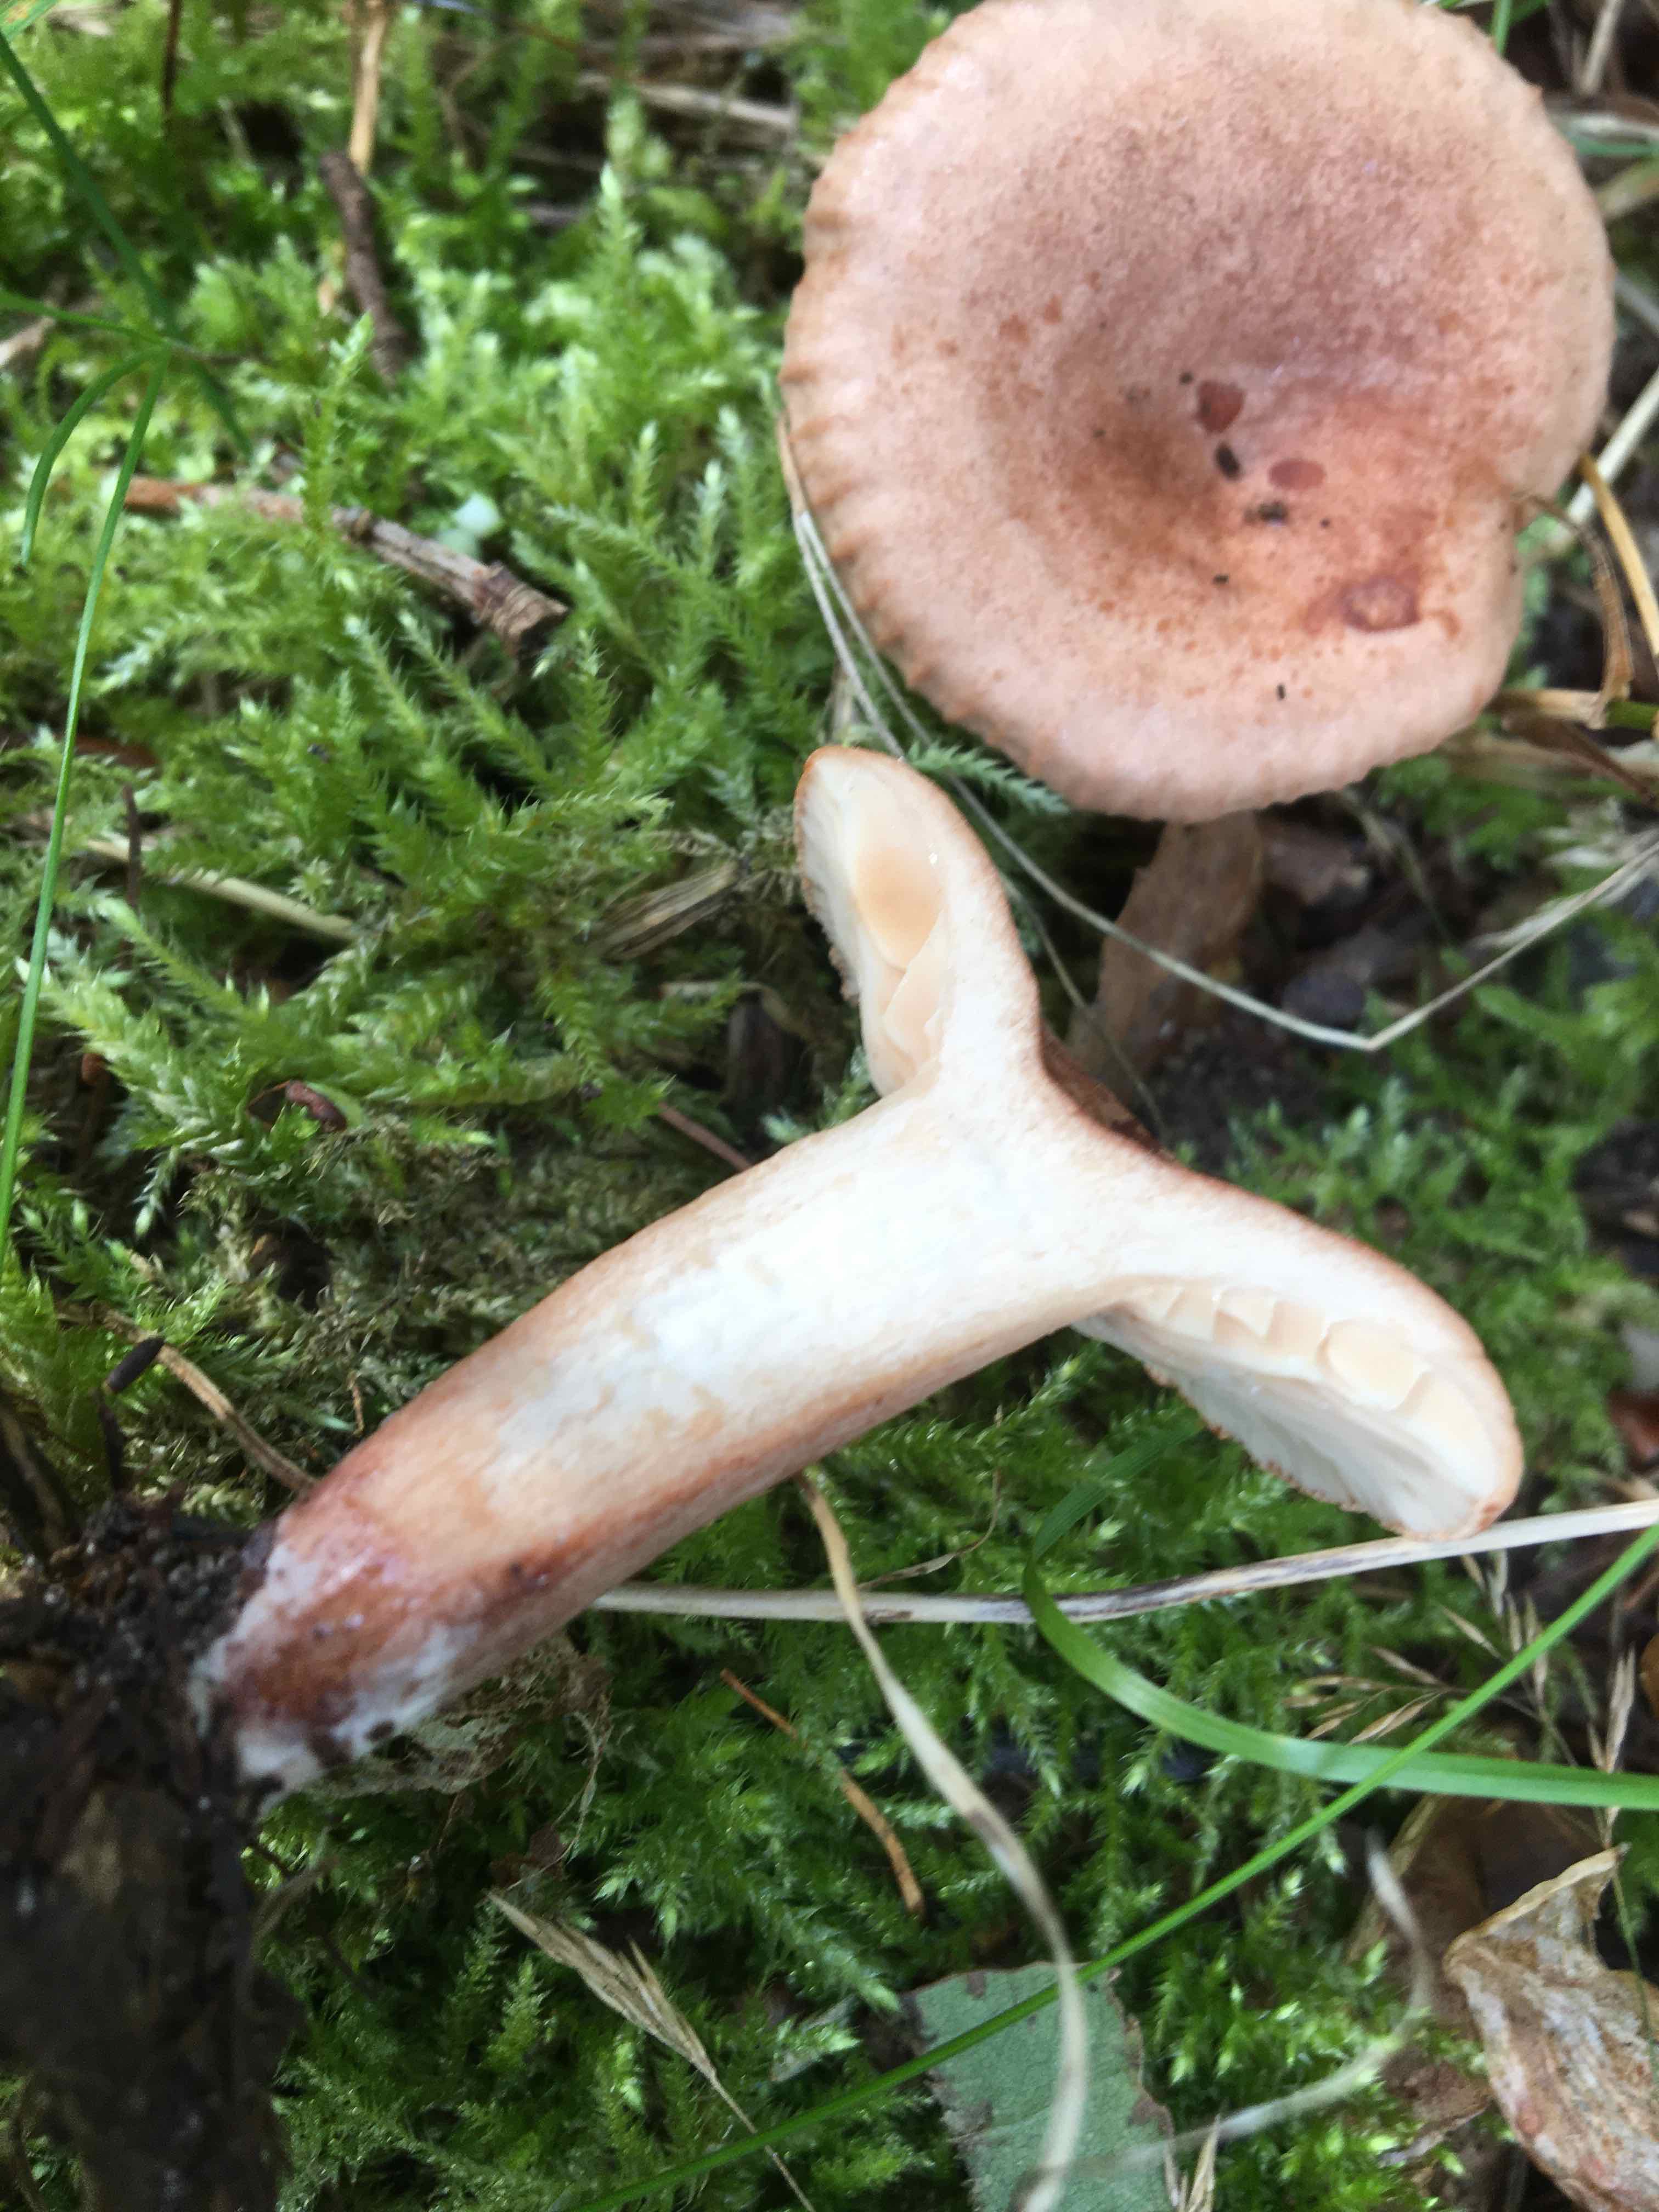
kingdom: Fungi
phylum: Basidiomycota
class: Agaricomycetes
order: Russulales
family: Russulaceae
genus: Lactarius
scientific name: Lactarius quietus
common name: ege-mælkehat
